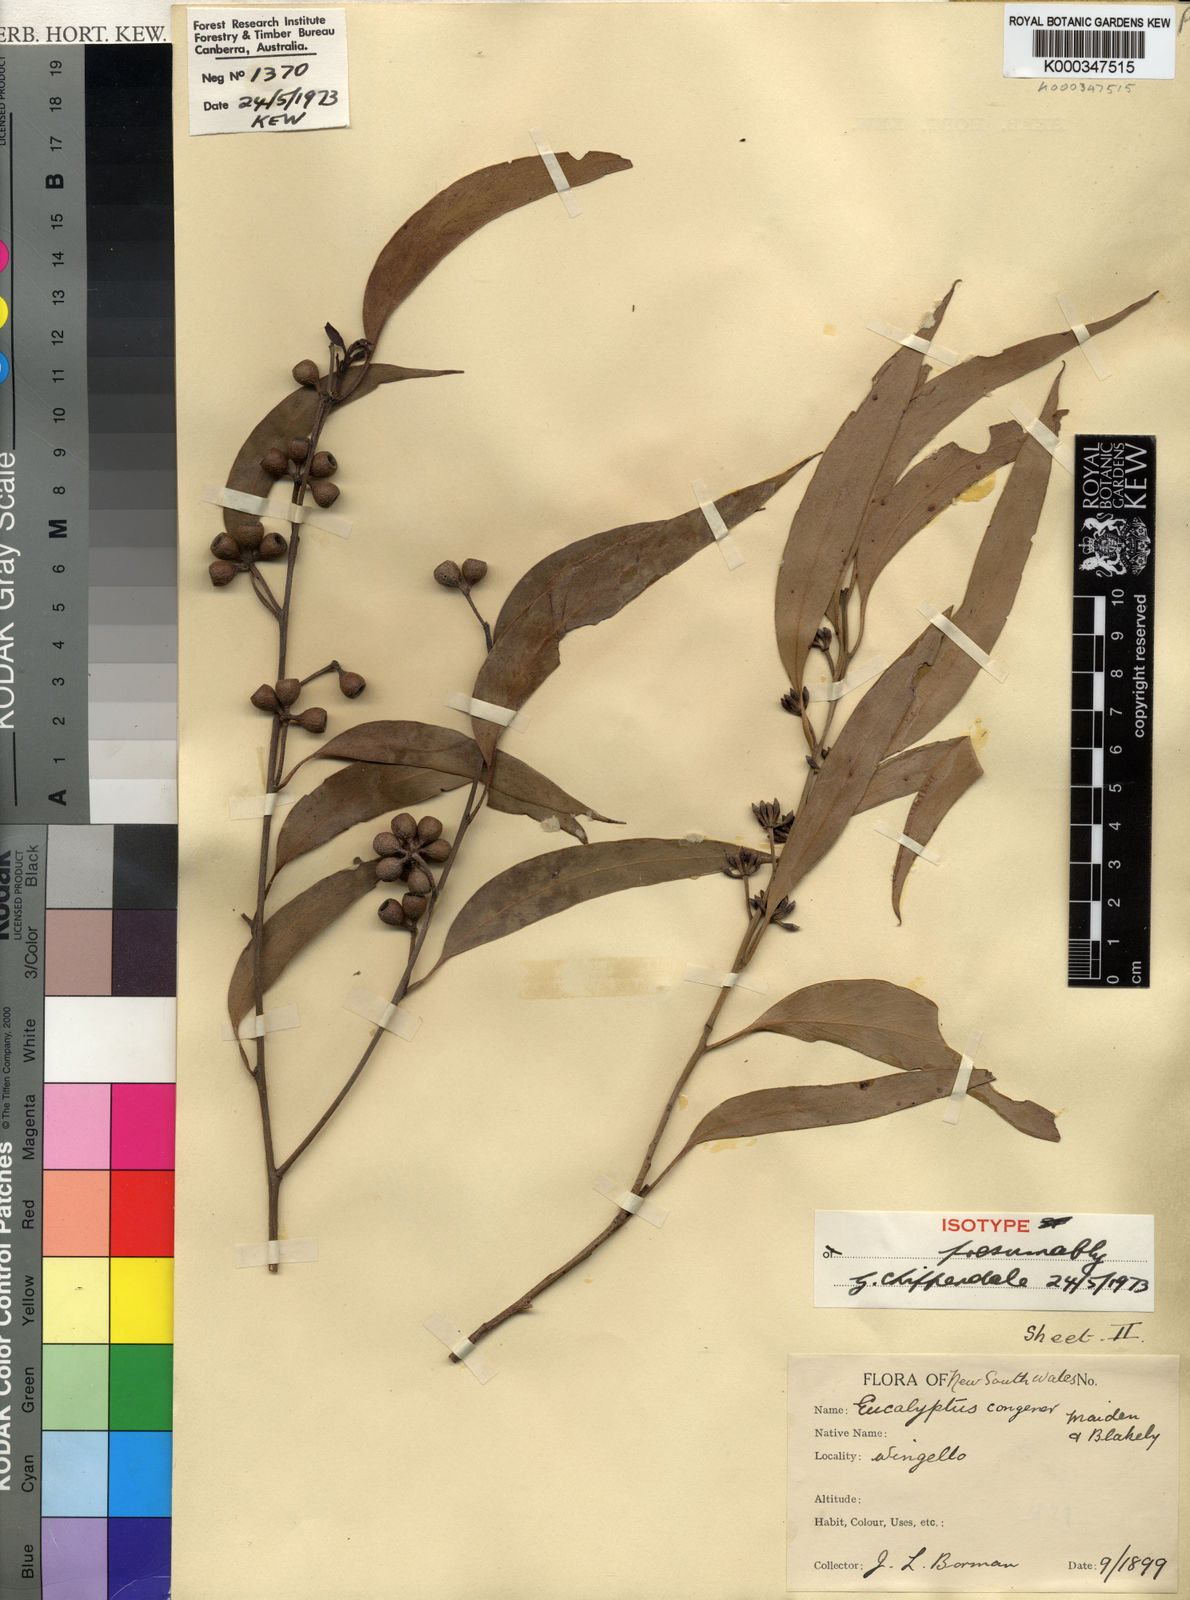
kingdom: Plantae
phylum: Tracheophyta
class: Magnoliopsida
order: Myrtales
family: Myrtaceae
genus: Eucalyptus
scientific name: Eucalyptus congener
